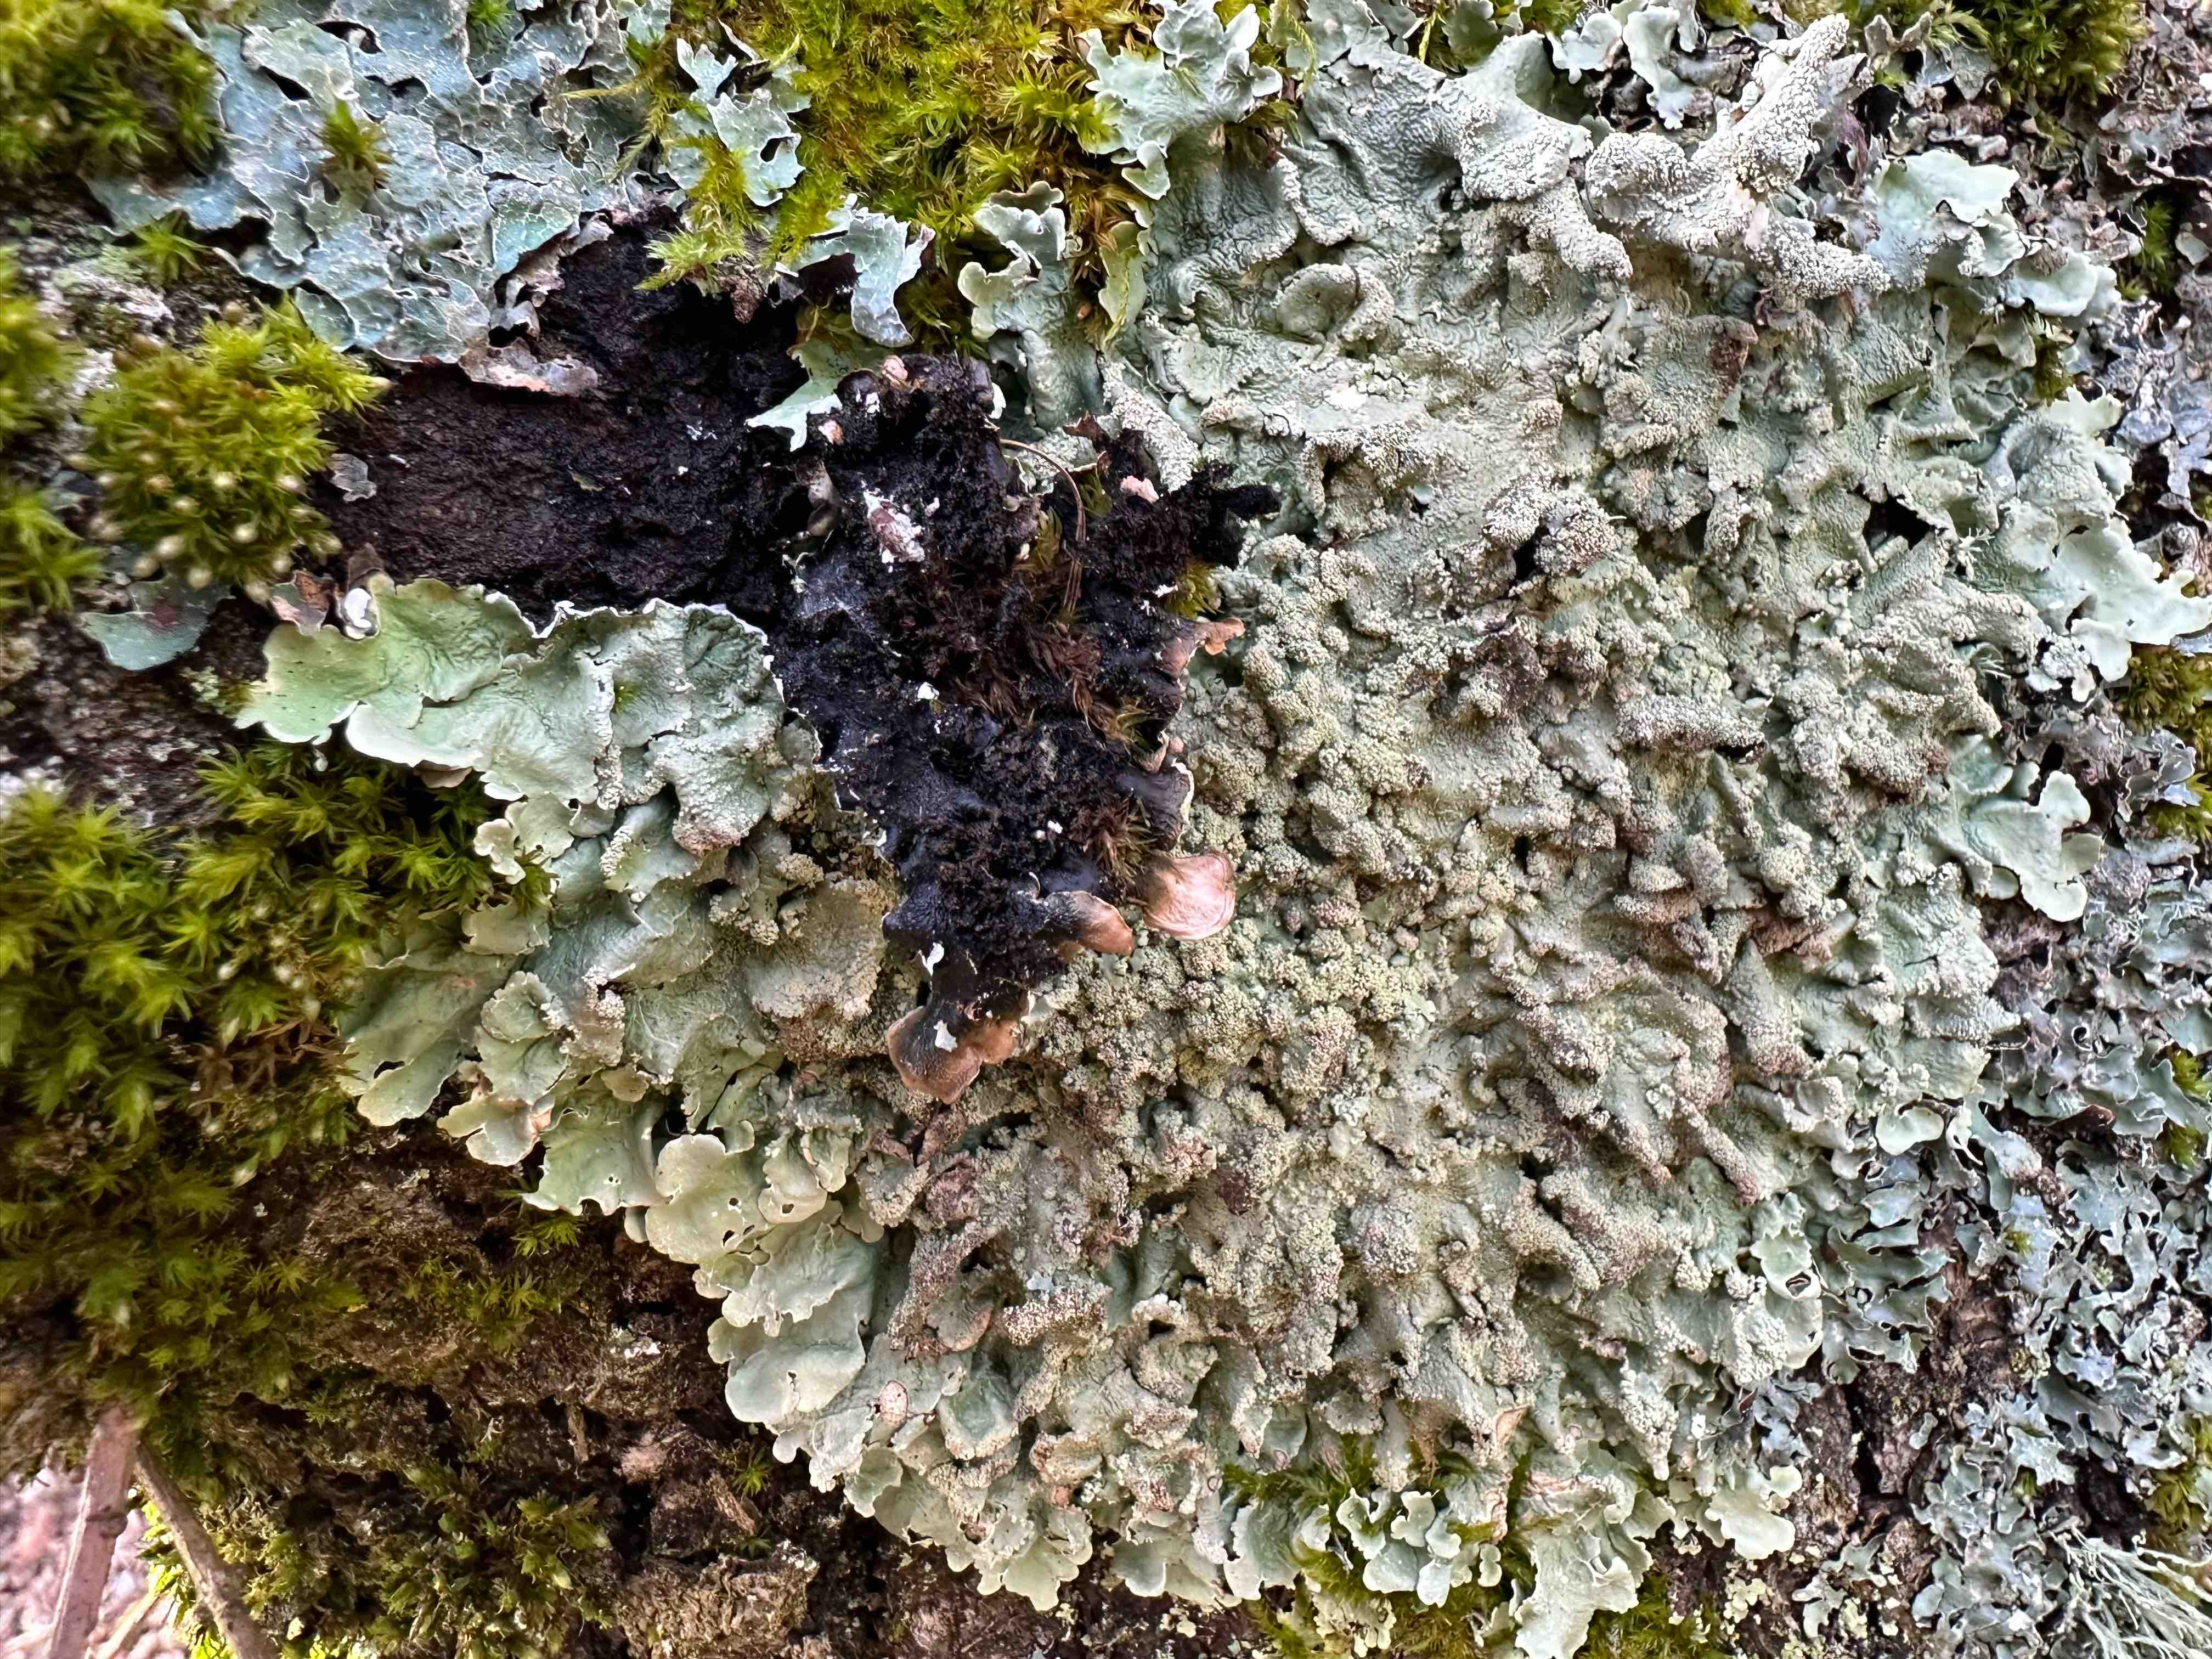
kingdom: Fungi
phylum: Ascomycota
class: Lecanoromycetes
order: Lecanorales
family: Parmeliaceae
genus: Flavoparmelia
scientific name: Flavoparmelia caperata
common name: gulgrøn skållav
